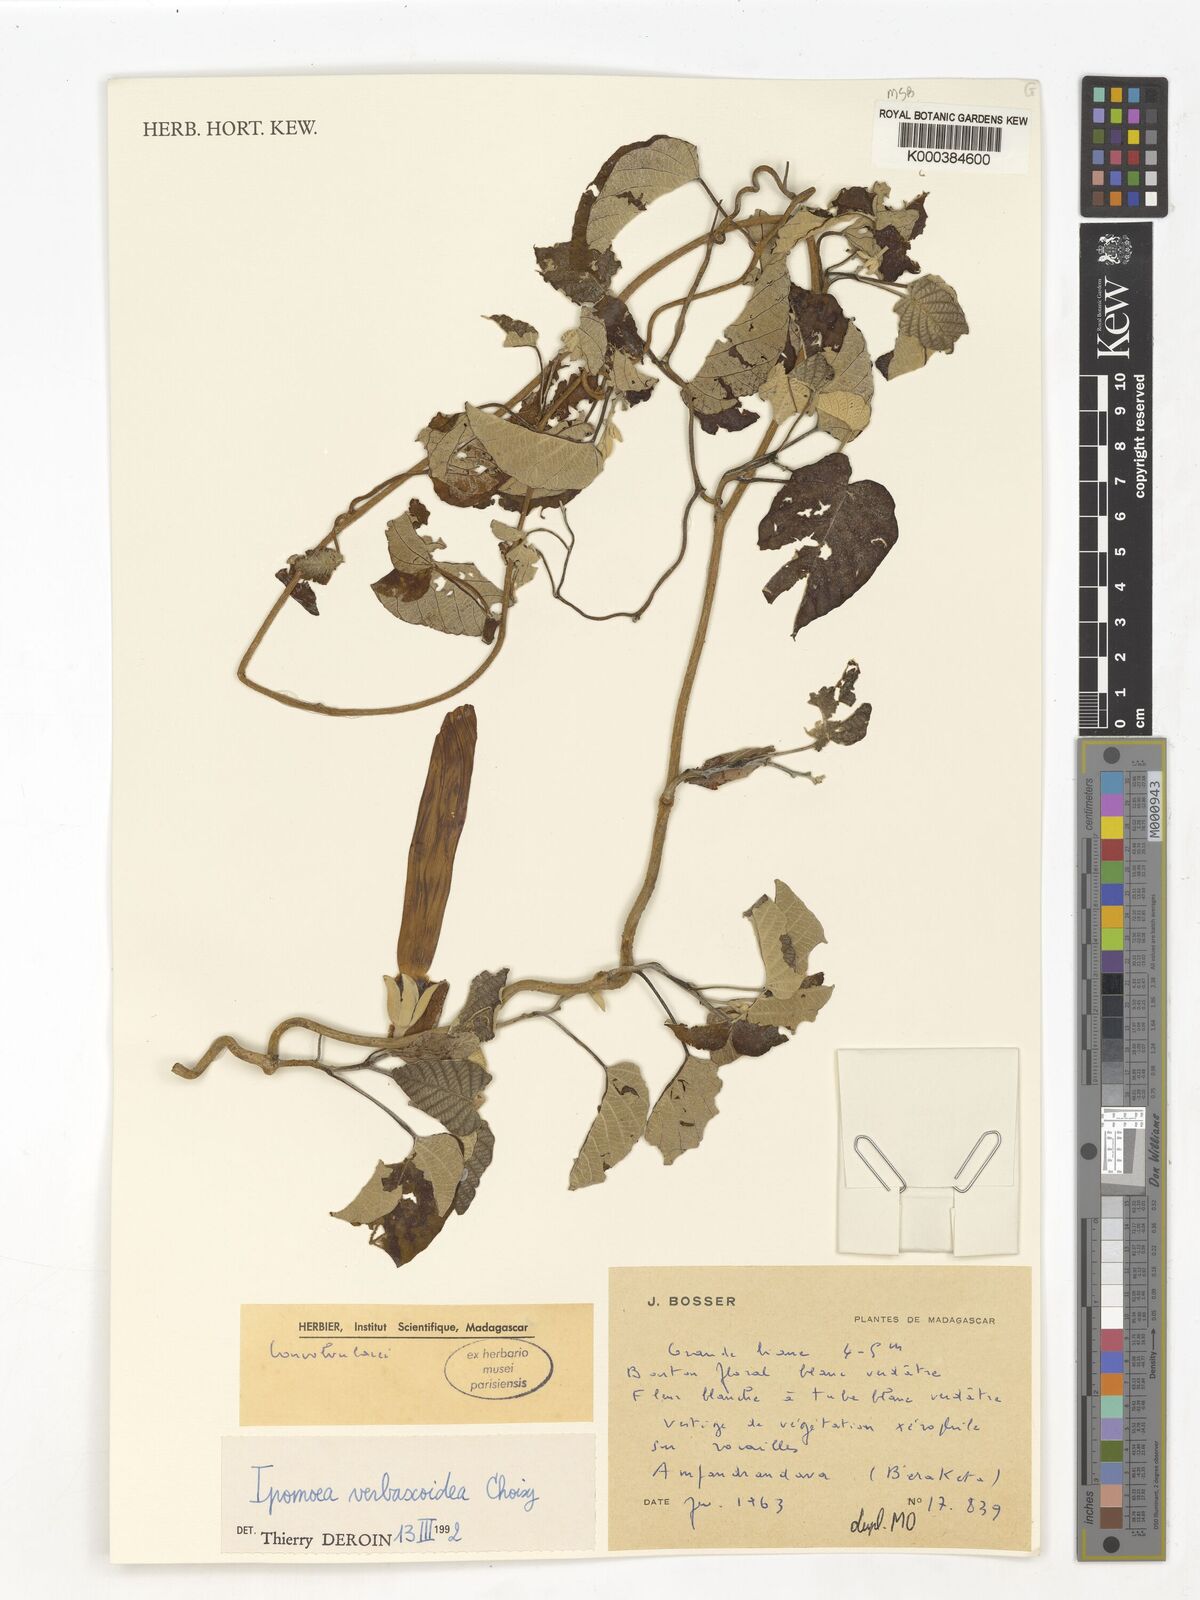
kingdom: Plantae
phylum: Tracheophyta
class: Magnoliopsida
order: Solanales
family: Convolvulaceae
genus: Ipomoea
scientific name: Ipomoea verbascoidea
